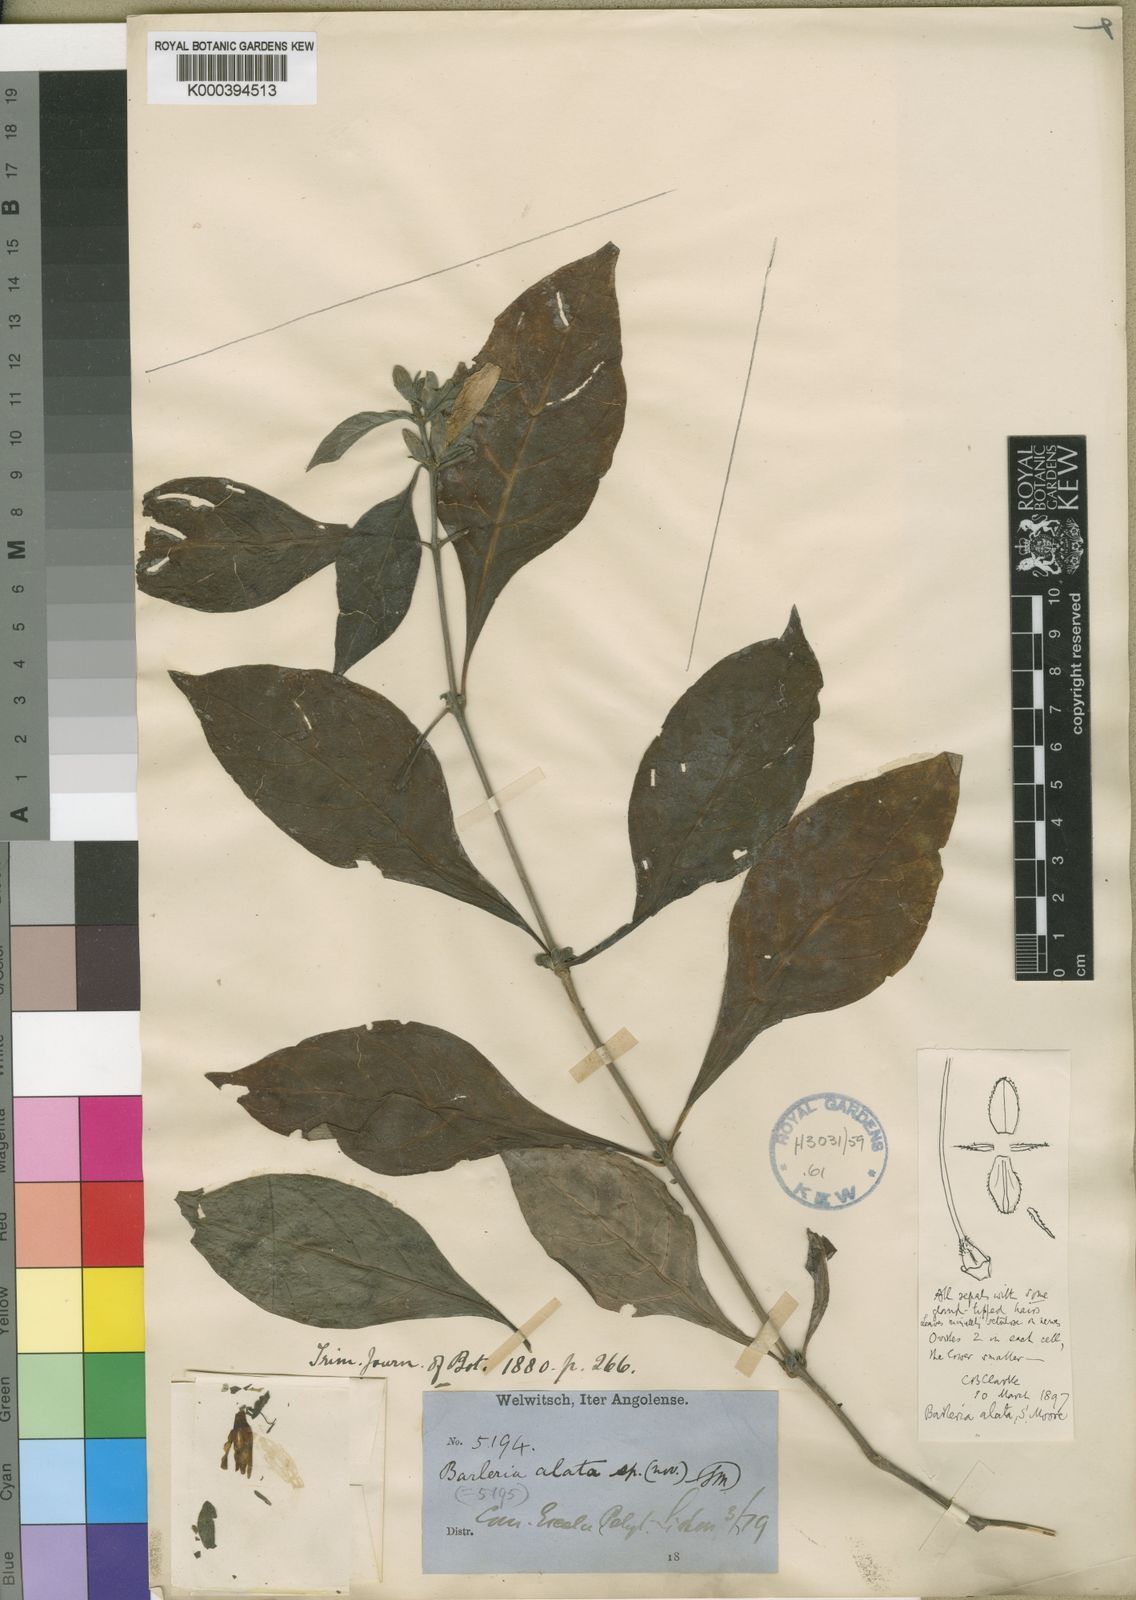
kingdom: Plantae
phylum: Tracheophyta
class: Magnoliopsida
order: Lamiales
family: Acanthaceae
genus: Barleria
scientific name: Barleria alata
